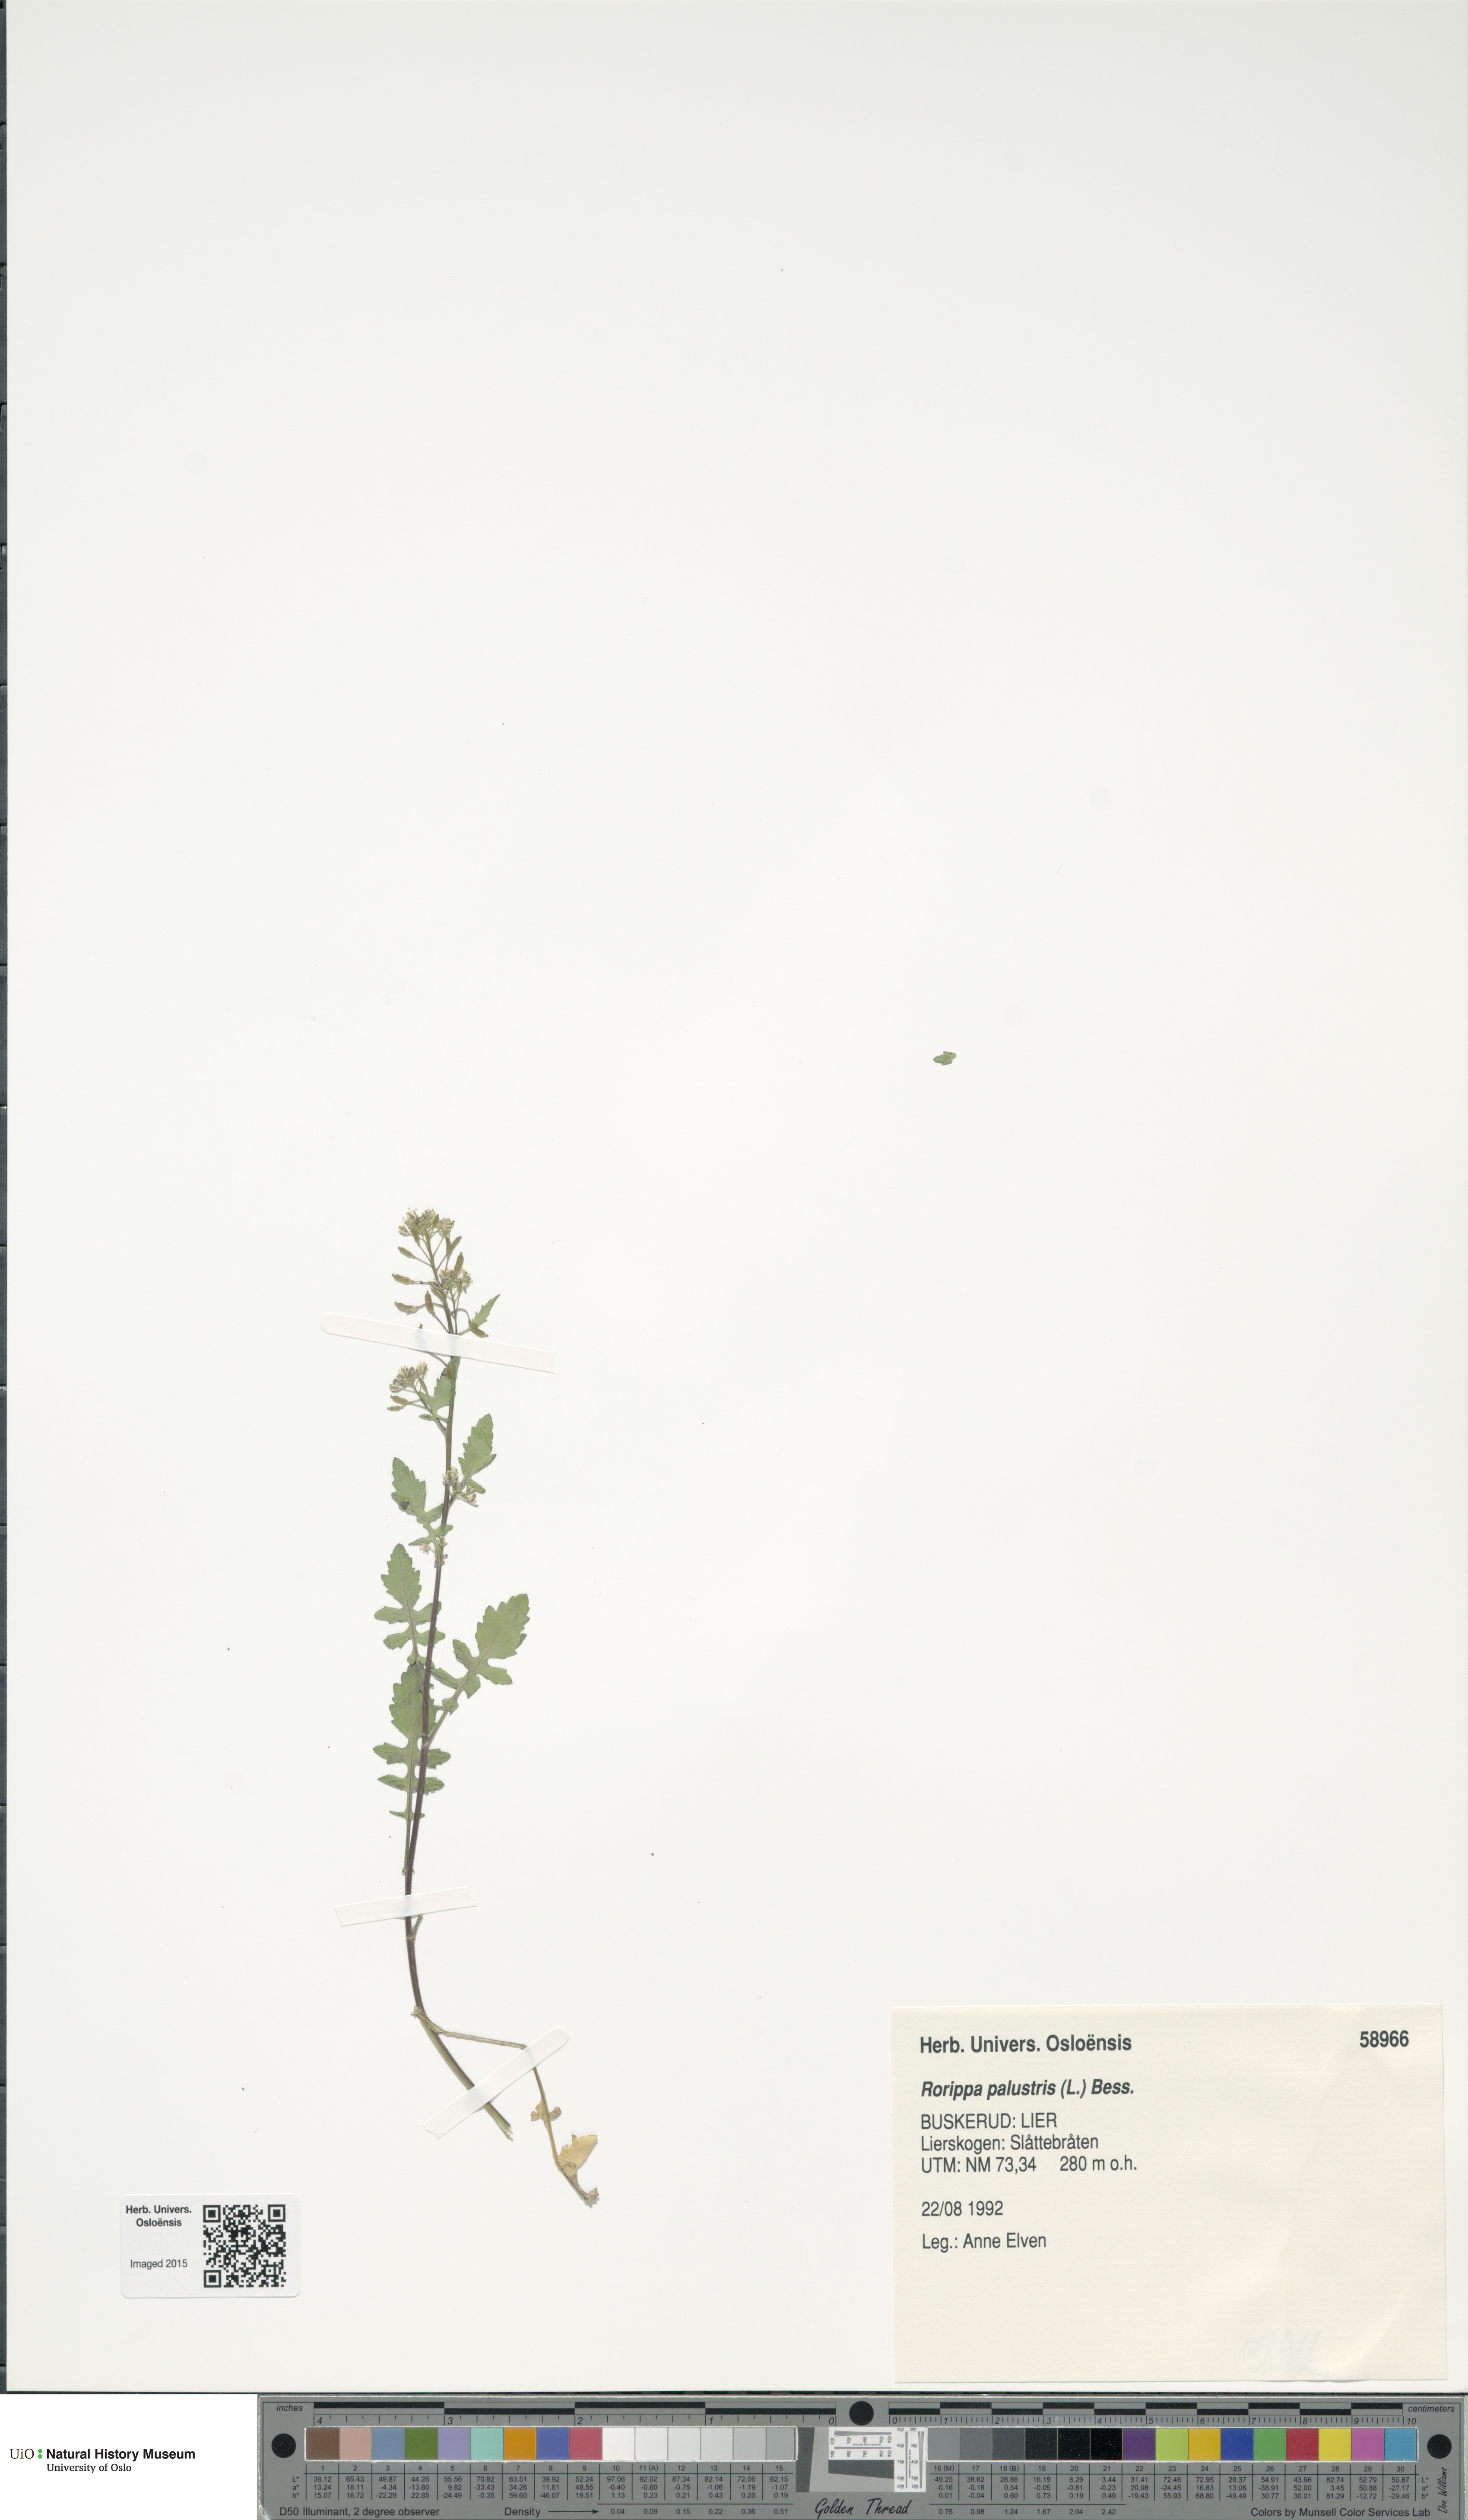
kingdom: Plantae
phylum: Tracheophyta
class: Magnoliopsida
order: Brassicales
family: Brassicaceae
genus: Rorippa
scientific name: Rorippa palustris
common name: Marsh yellow-cress
